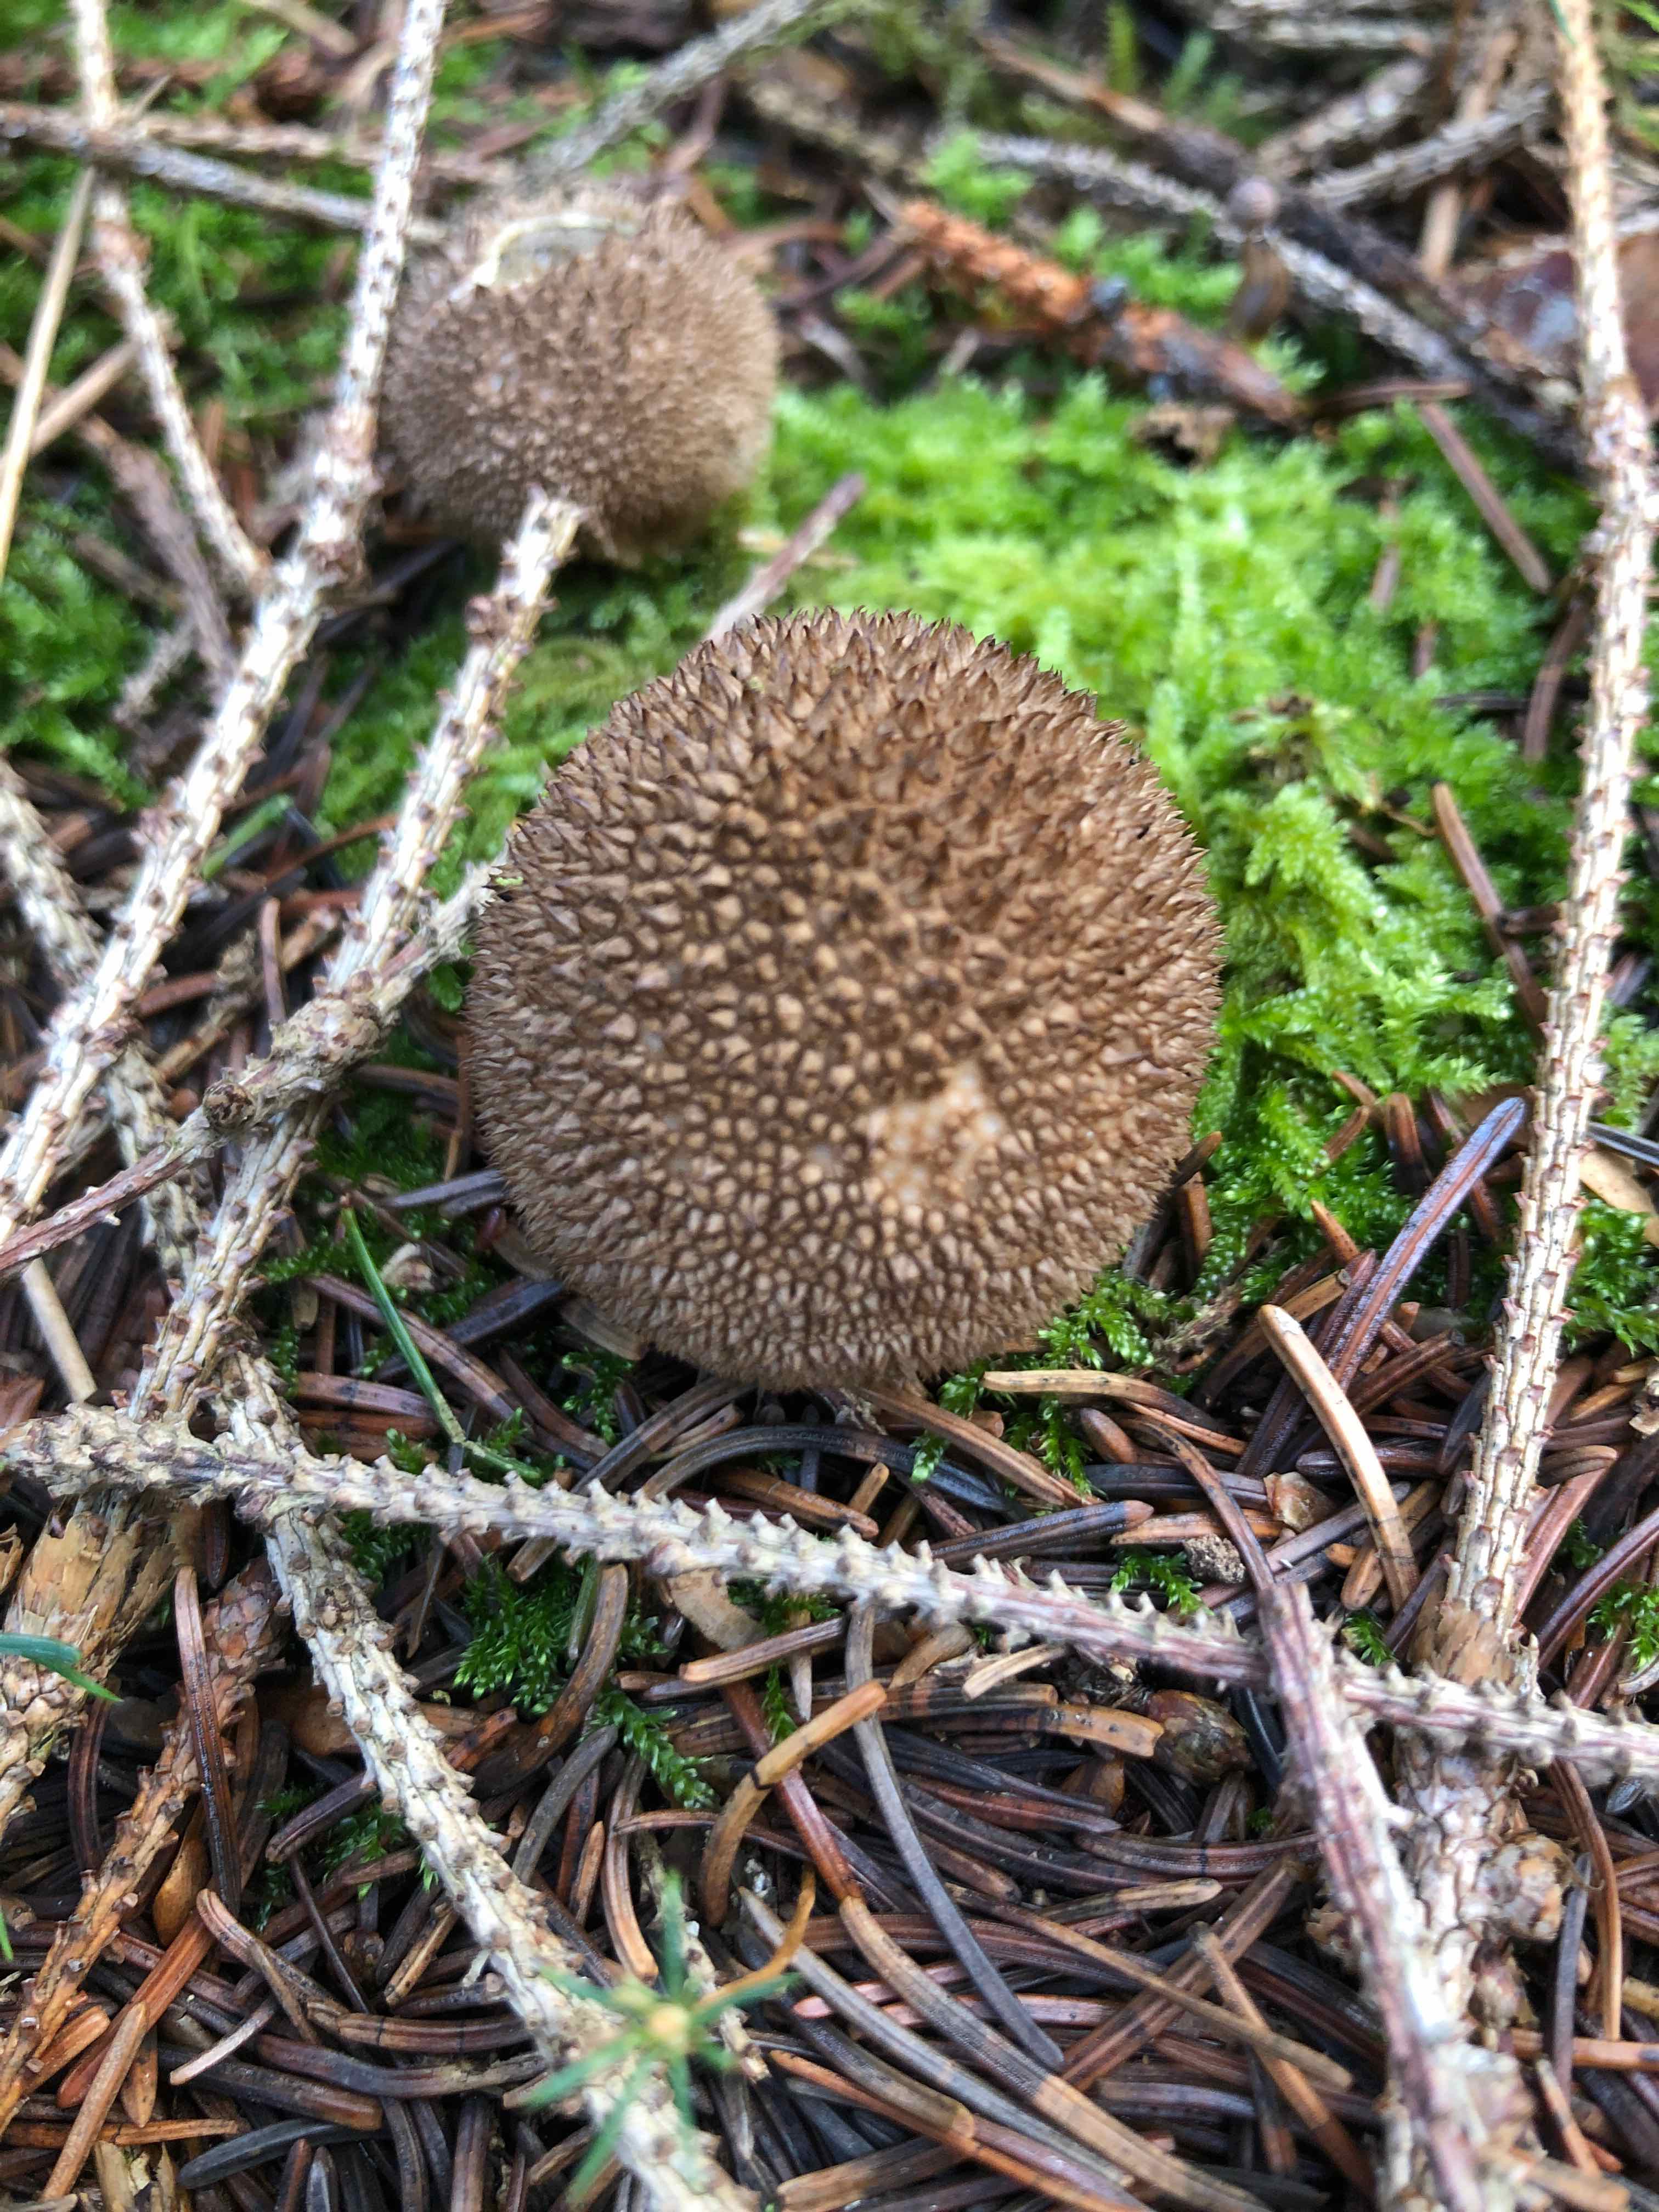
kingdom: Fungi
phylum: Basidiomycota
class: Agaricomycetes
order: Agaricales
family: Lycoperdaceae
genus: Lycoperdon
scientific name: Lycoperdon nigrescens
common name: sortagtig støvbold
